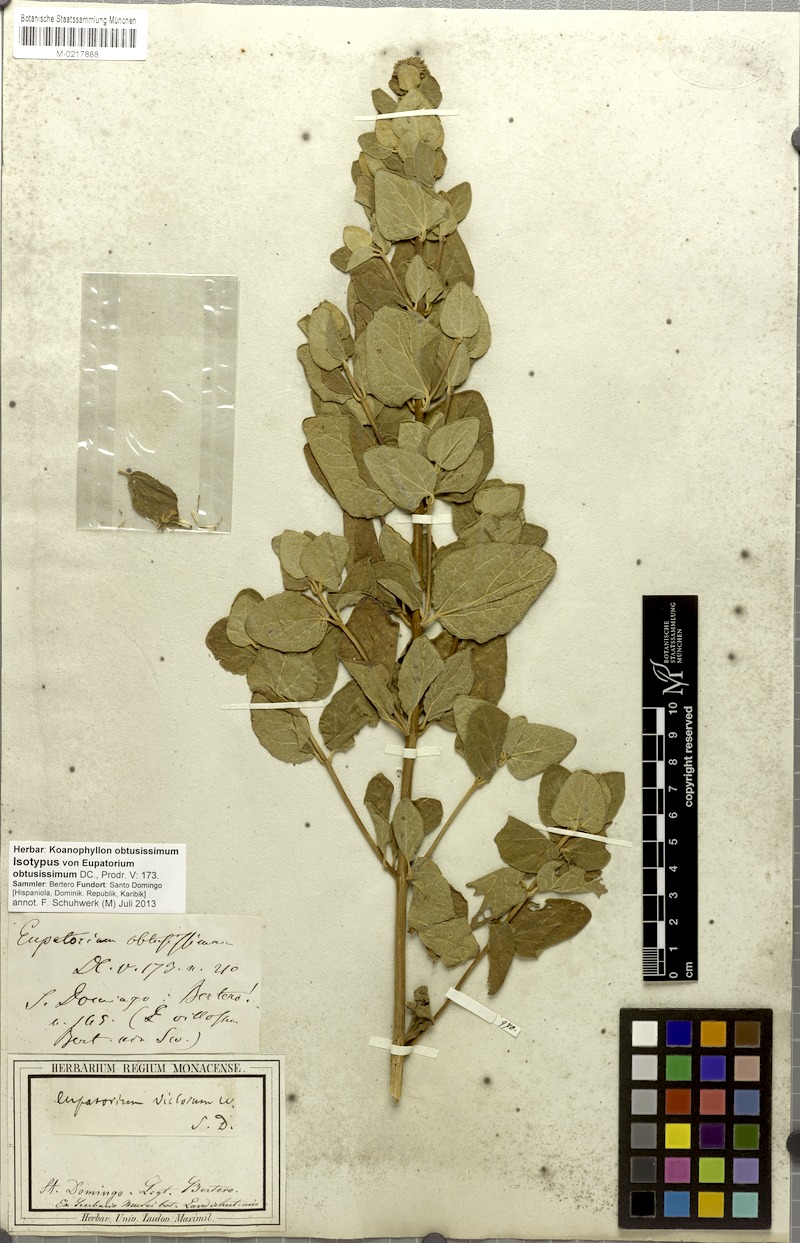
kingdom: Plantae
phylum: Tracheophyta
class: Magnoliopsida
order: Asterales
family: Asteraceae
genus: Koanophyllon
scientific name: Koanophyllon obtusissimum
